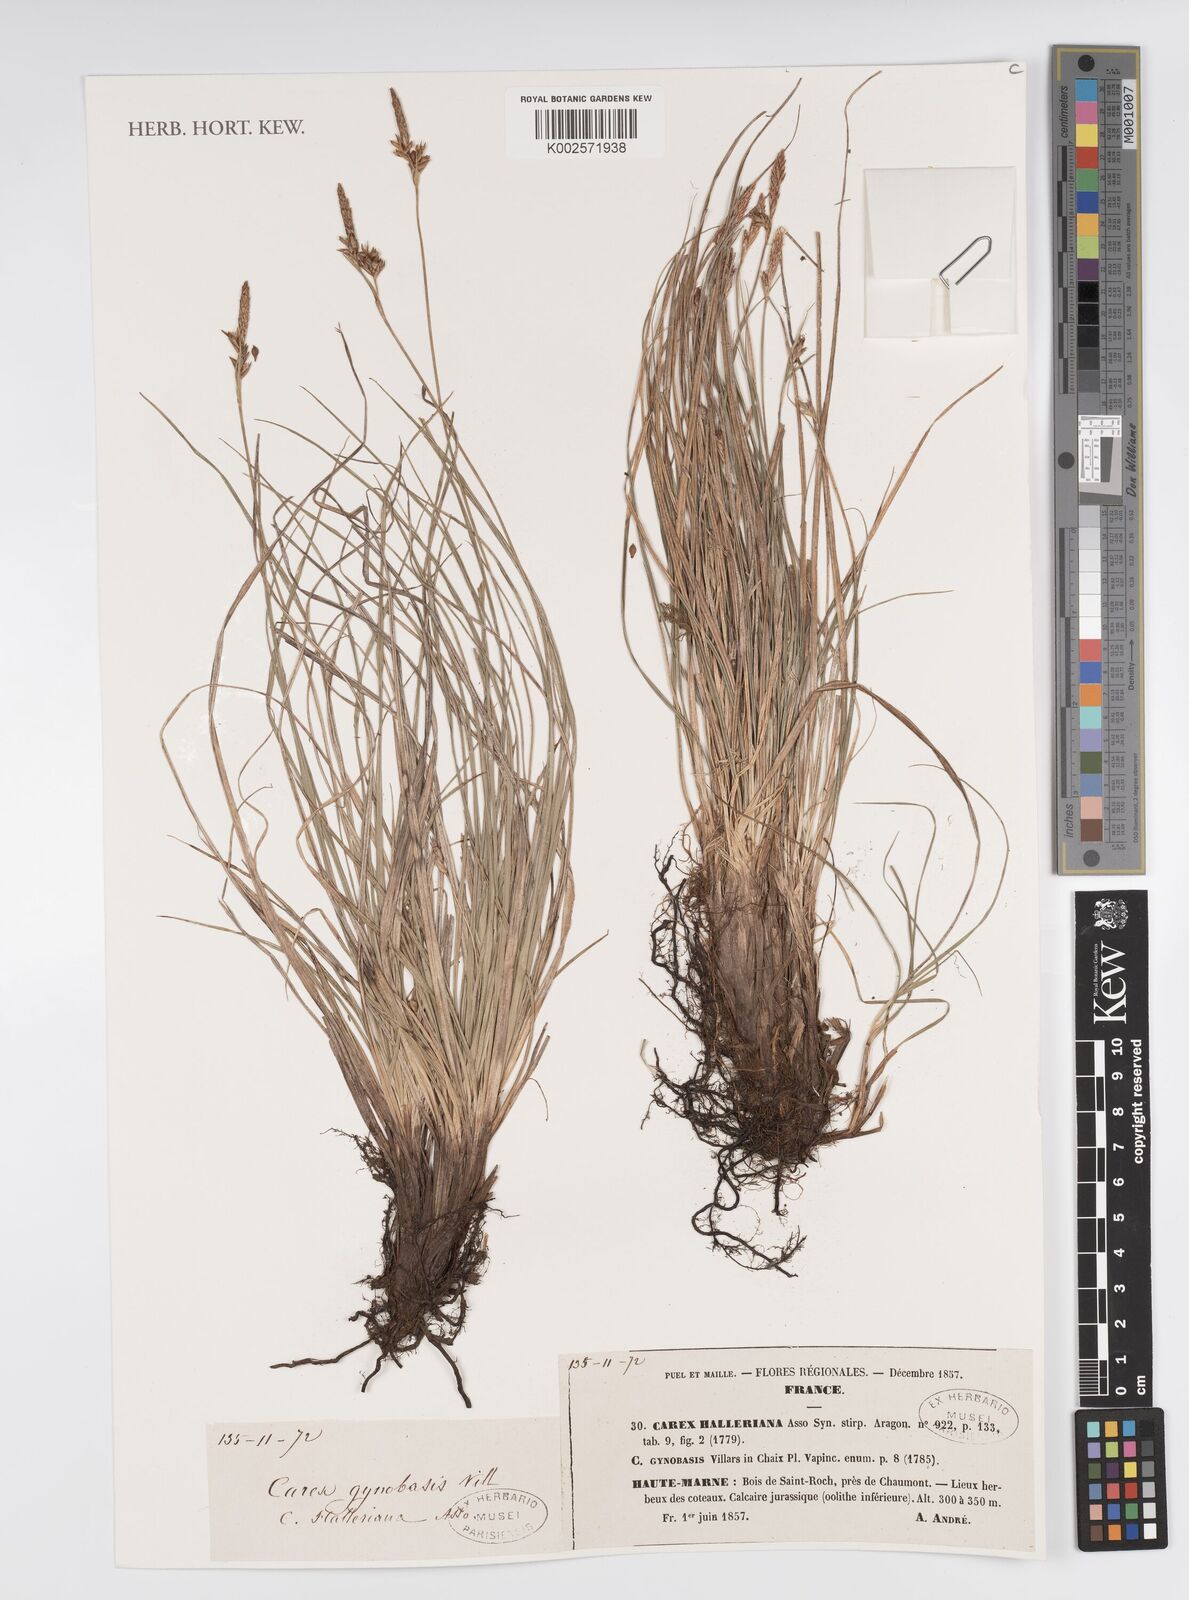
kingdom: Plantae
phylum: Tracheophyta
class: Liliopsida
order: Poales
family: Cyperaceae
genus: Carex
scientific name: Carex halleriana
